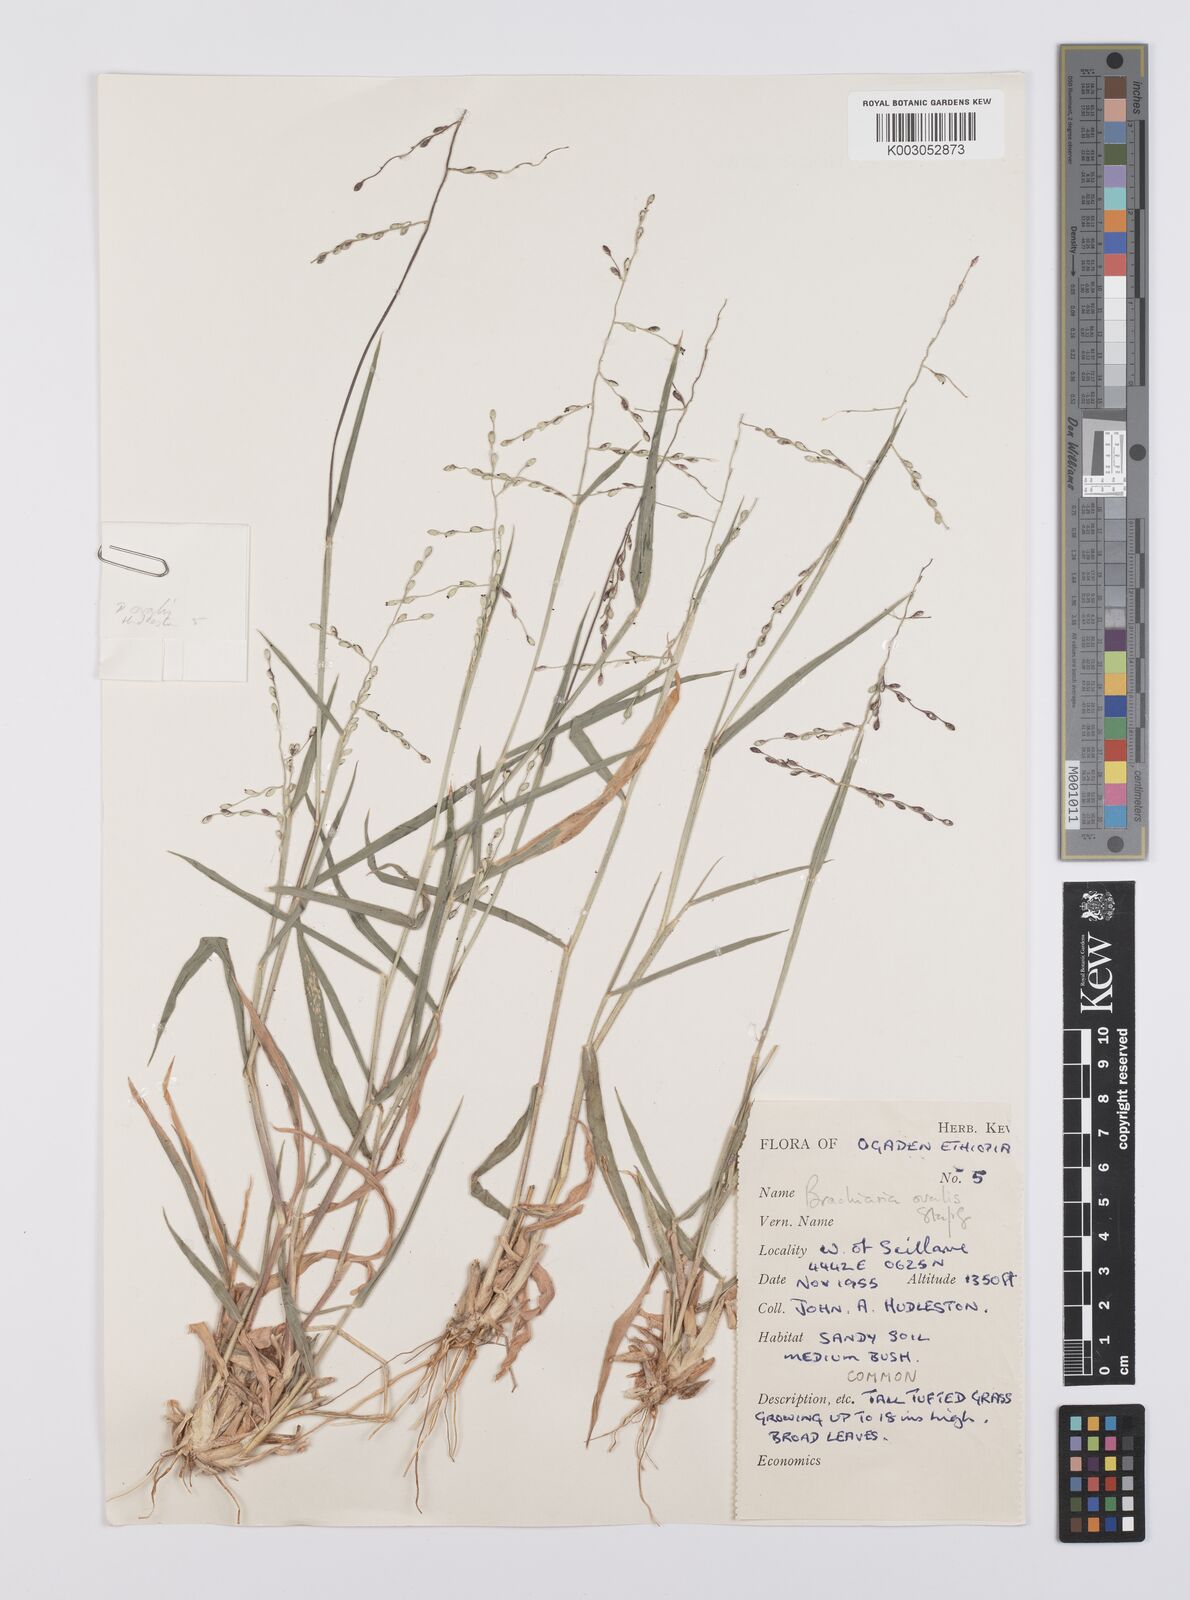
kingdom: Plantae
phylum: Tracheophyta
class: Liliopsida
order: Poales
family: Poaceae
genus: Urochloa
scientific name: Urochloa ovalis
